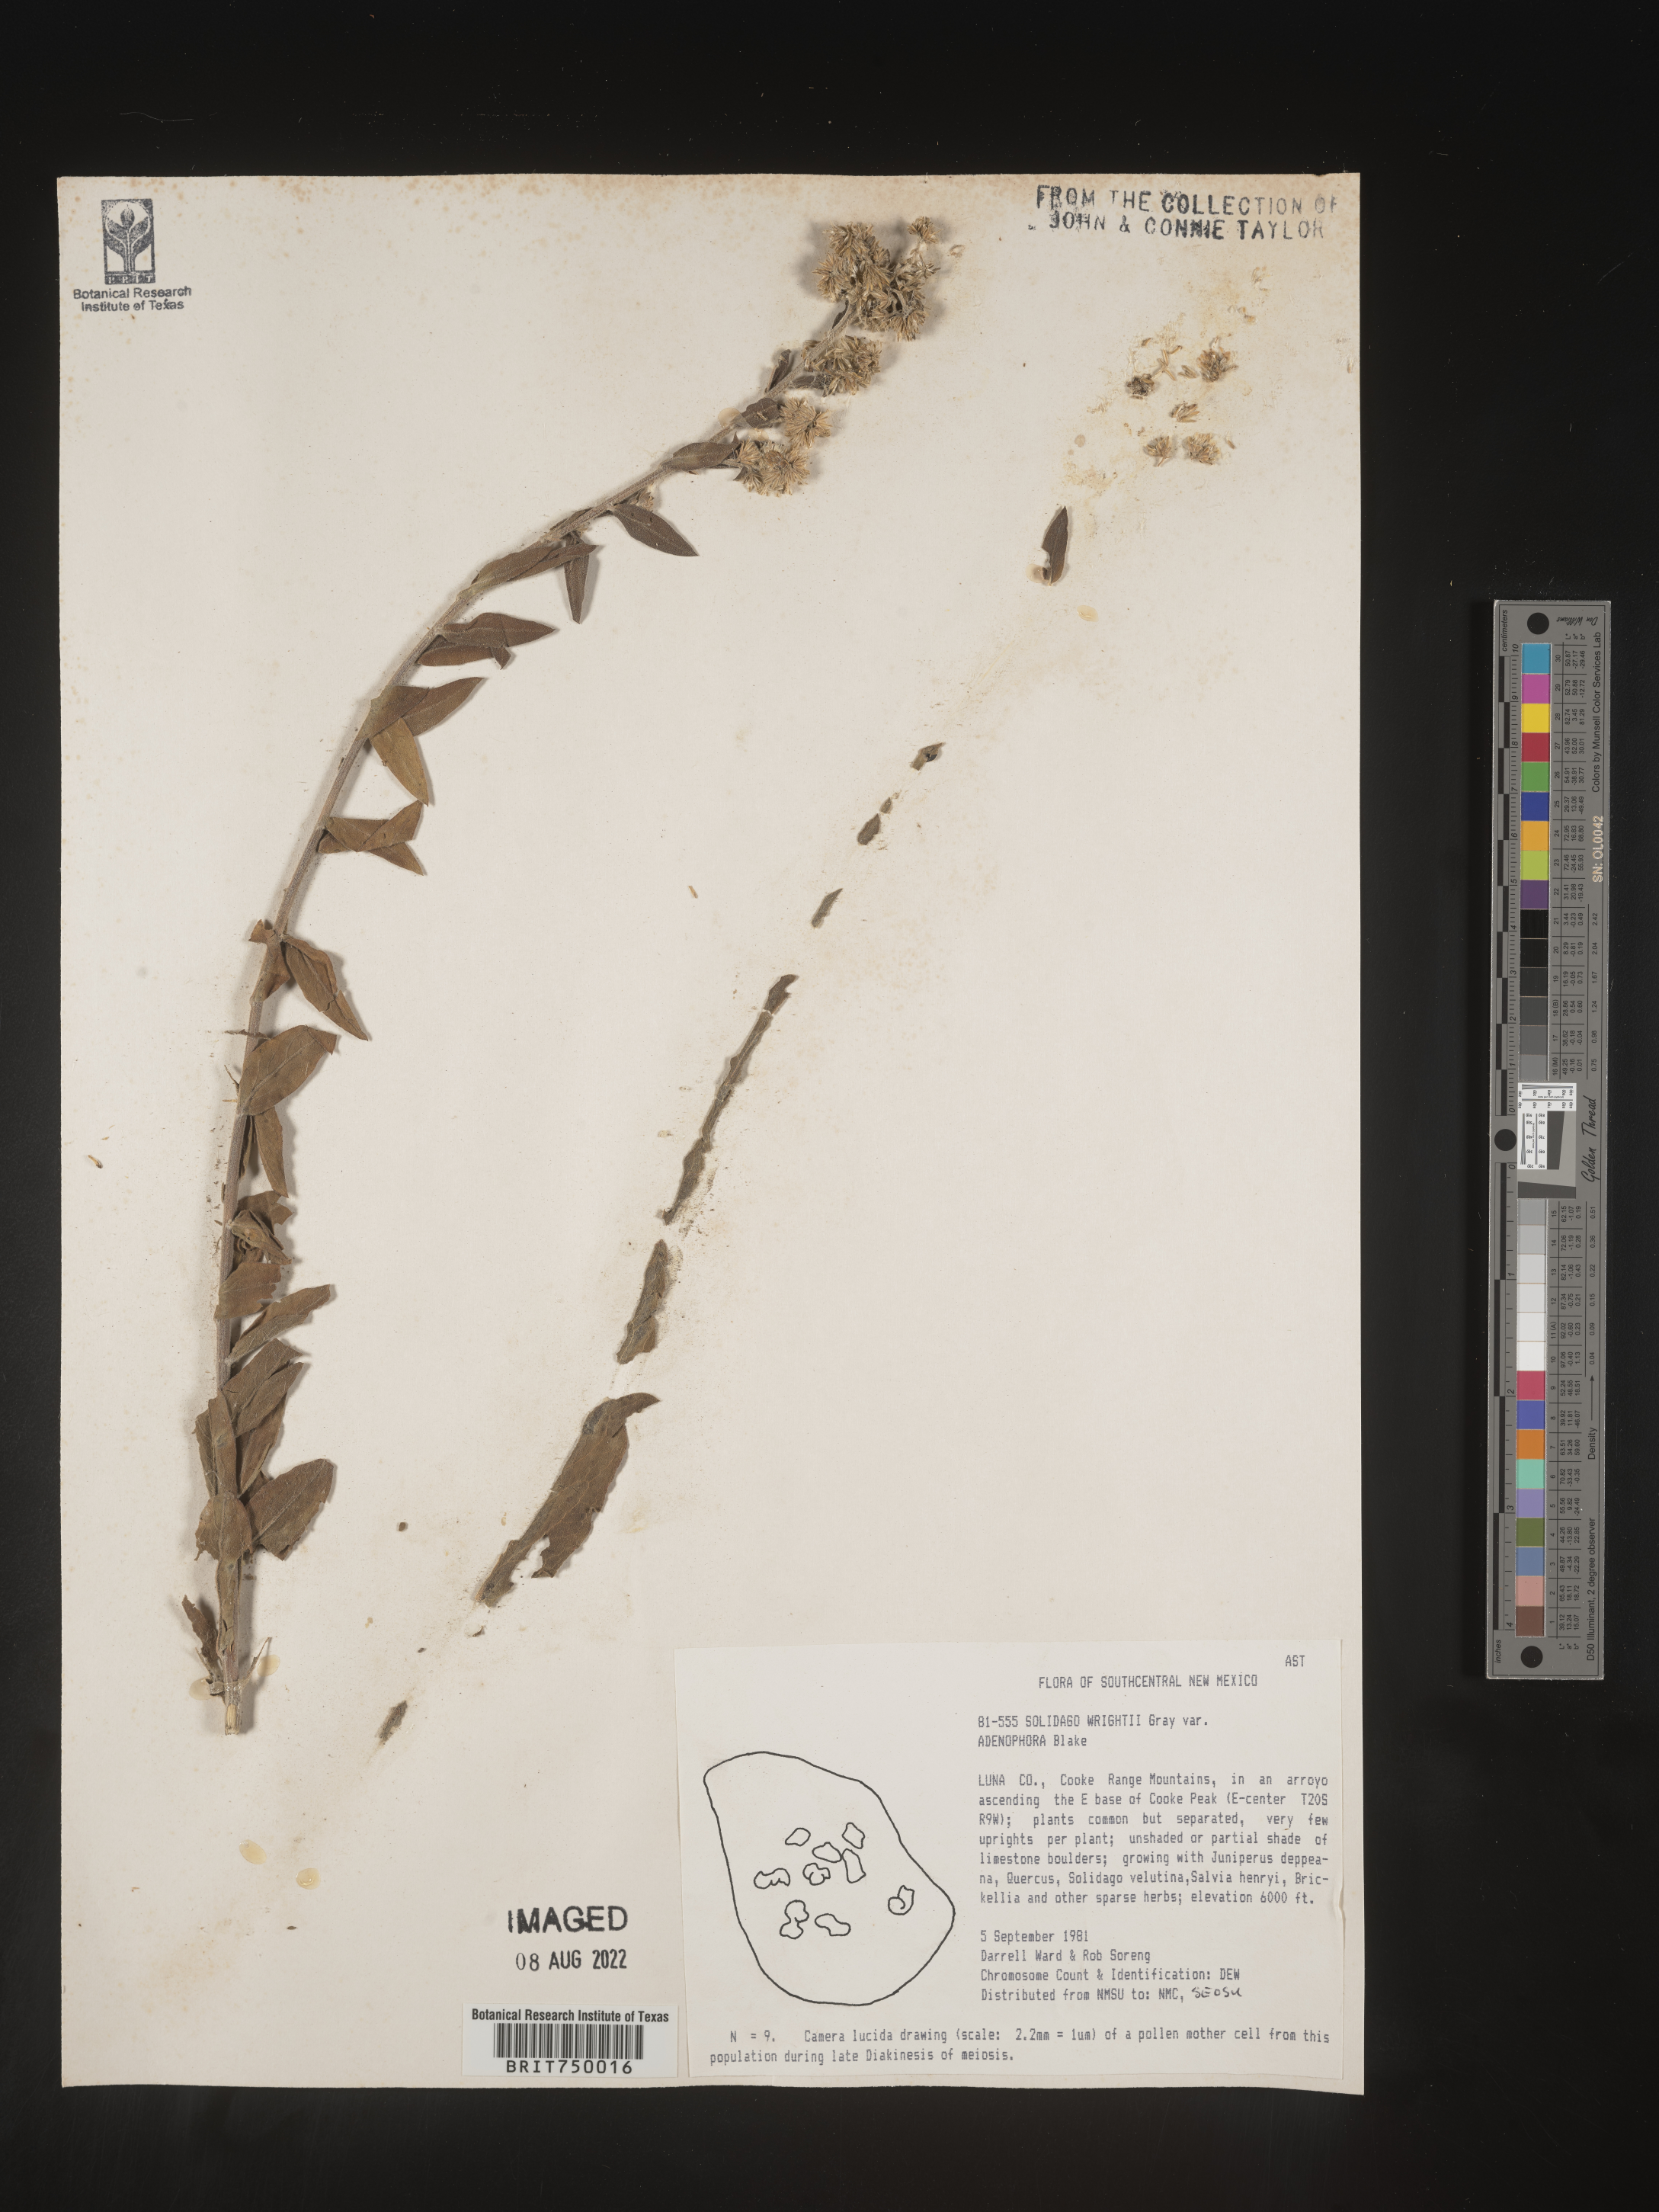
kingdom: Plantae
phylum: Tracheophyta
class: Magnoliopsida
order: Asterales
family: Asteraceae
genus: Solidago
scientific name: Solidago wrightii
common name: Wright's goldenrod
